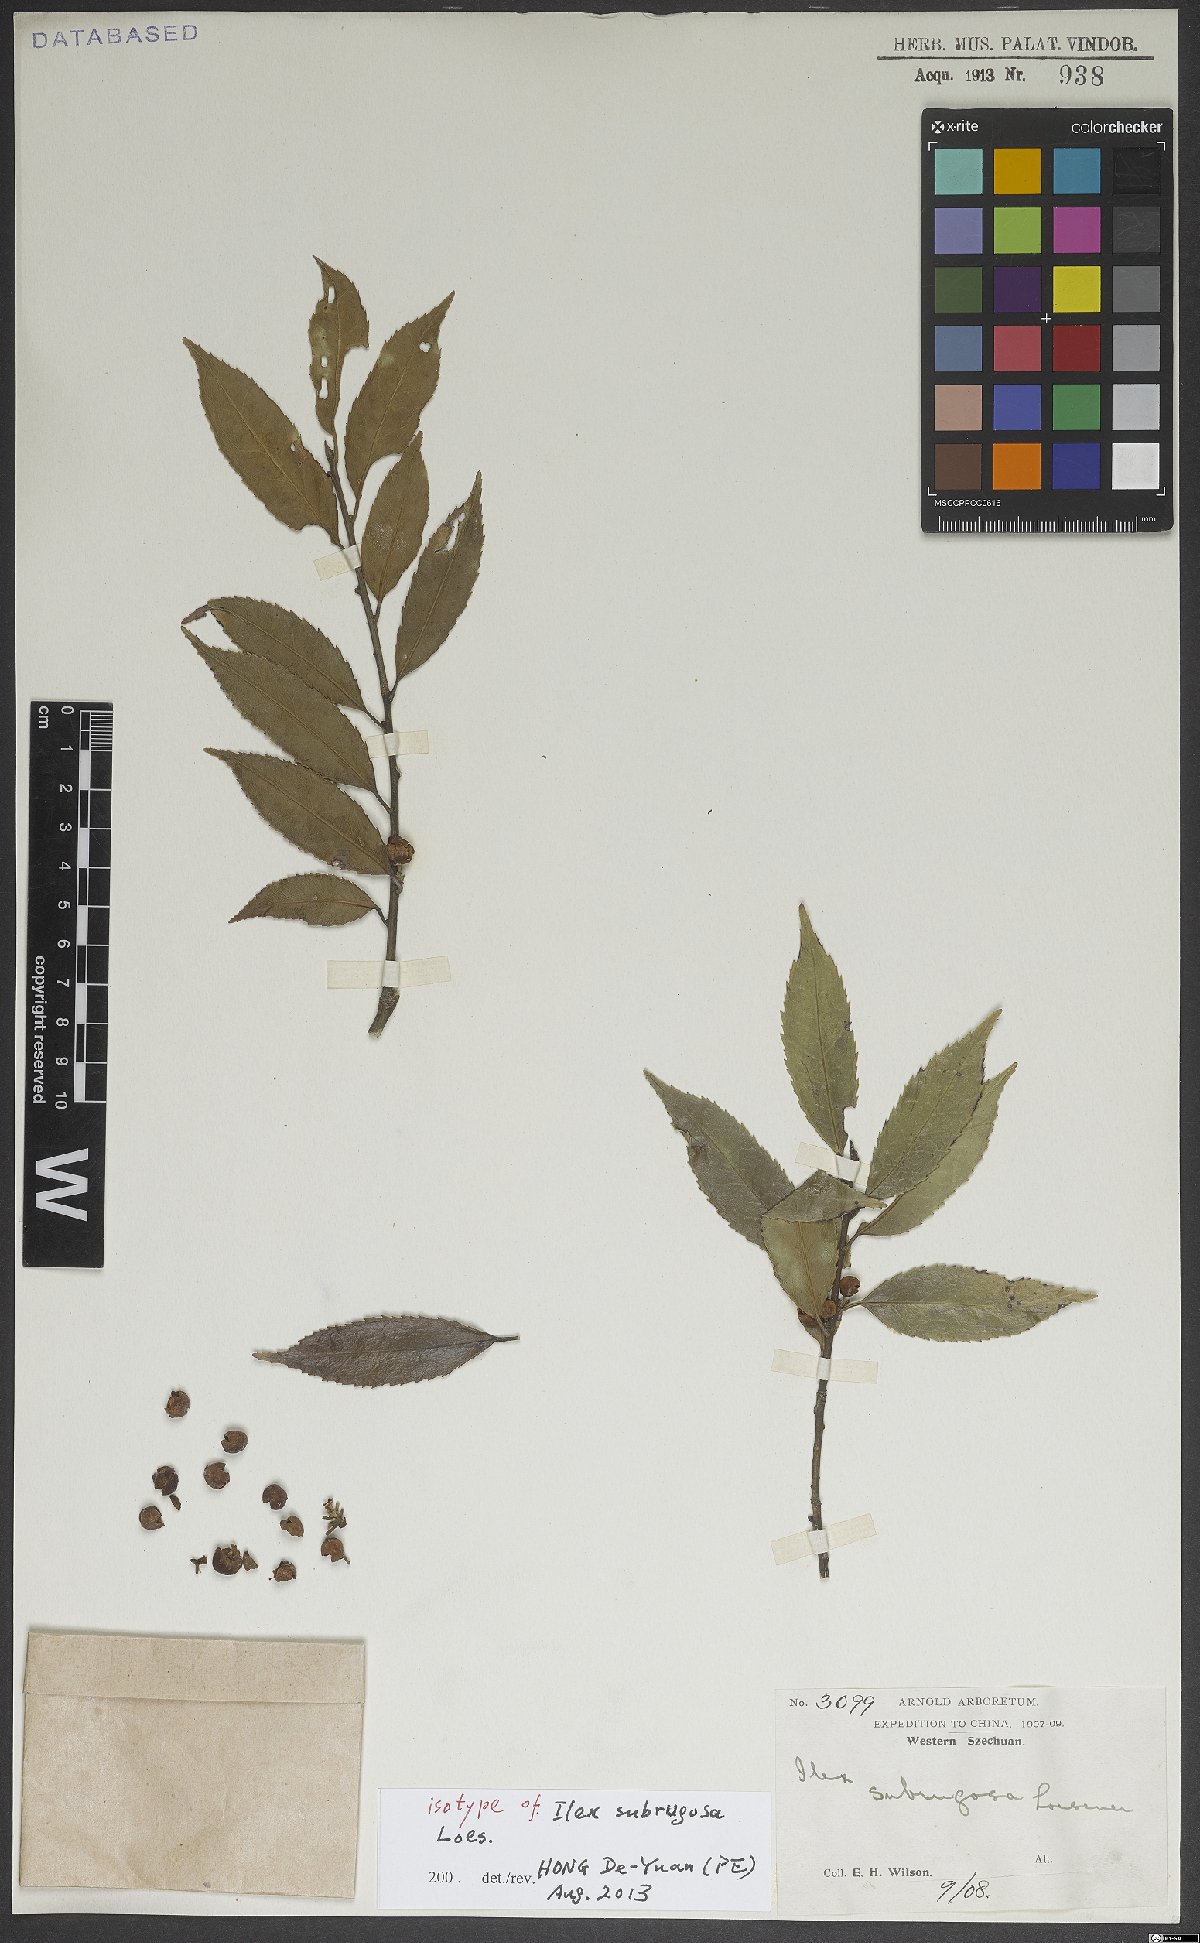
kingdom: Plantae
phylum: Tracheophyta
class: Magnoliopsida
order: Aquifoliales
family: Aquifoliaceae
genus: Ilex
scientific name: Ilex subrugosa
